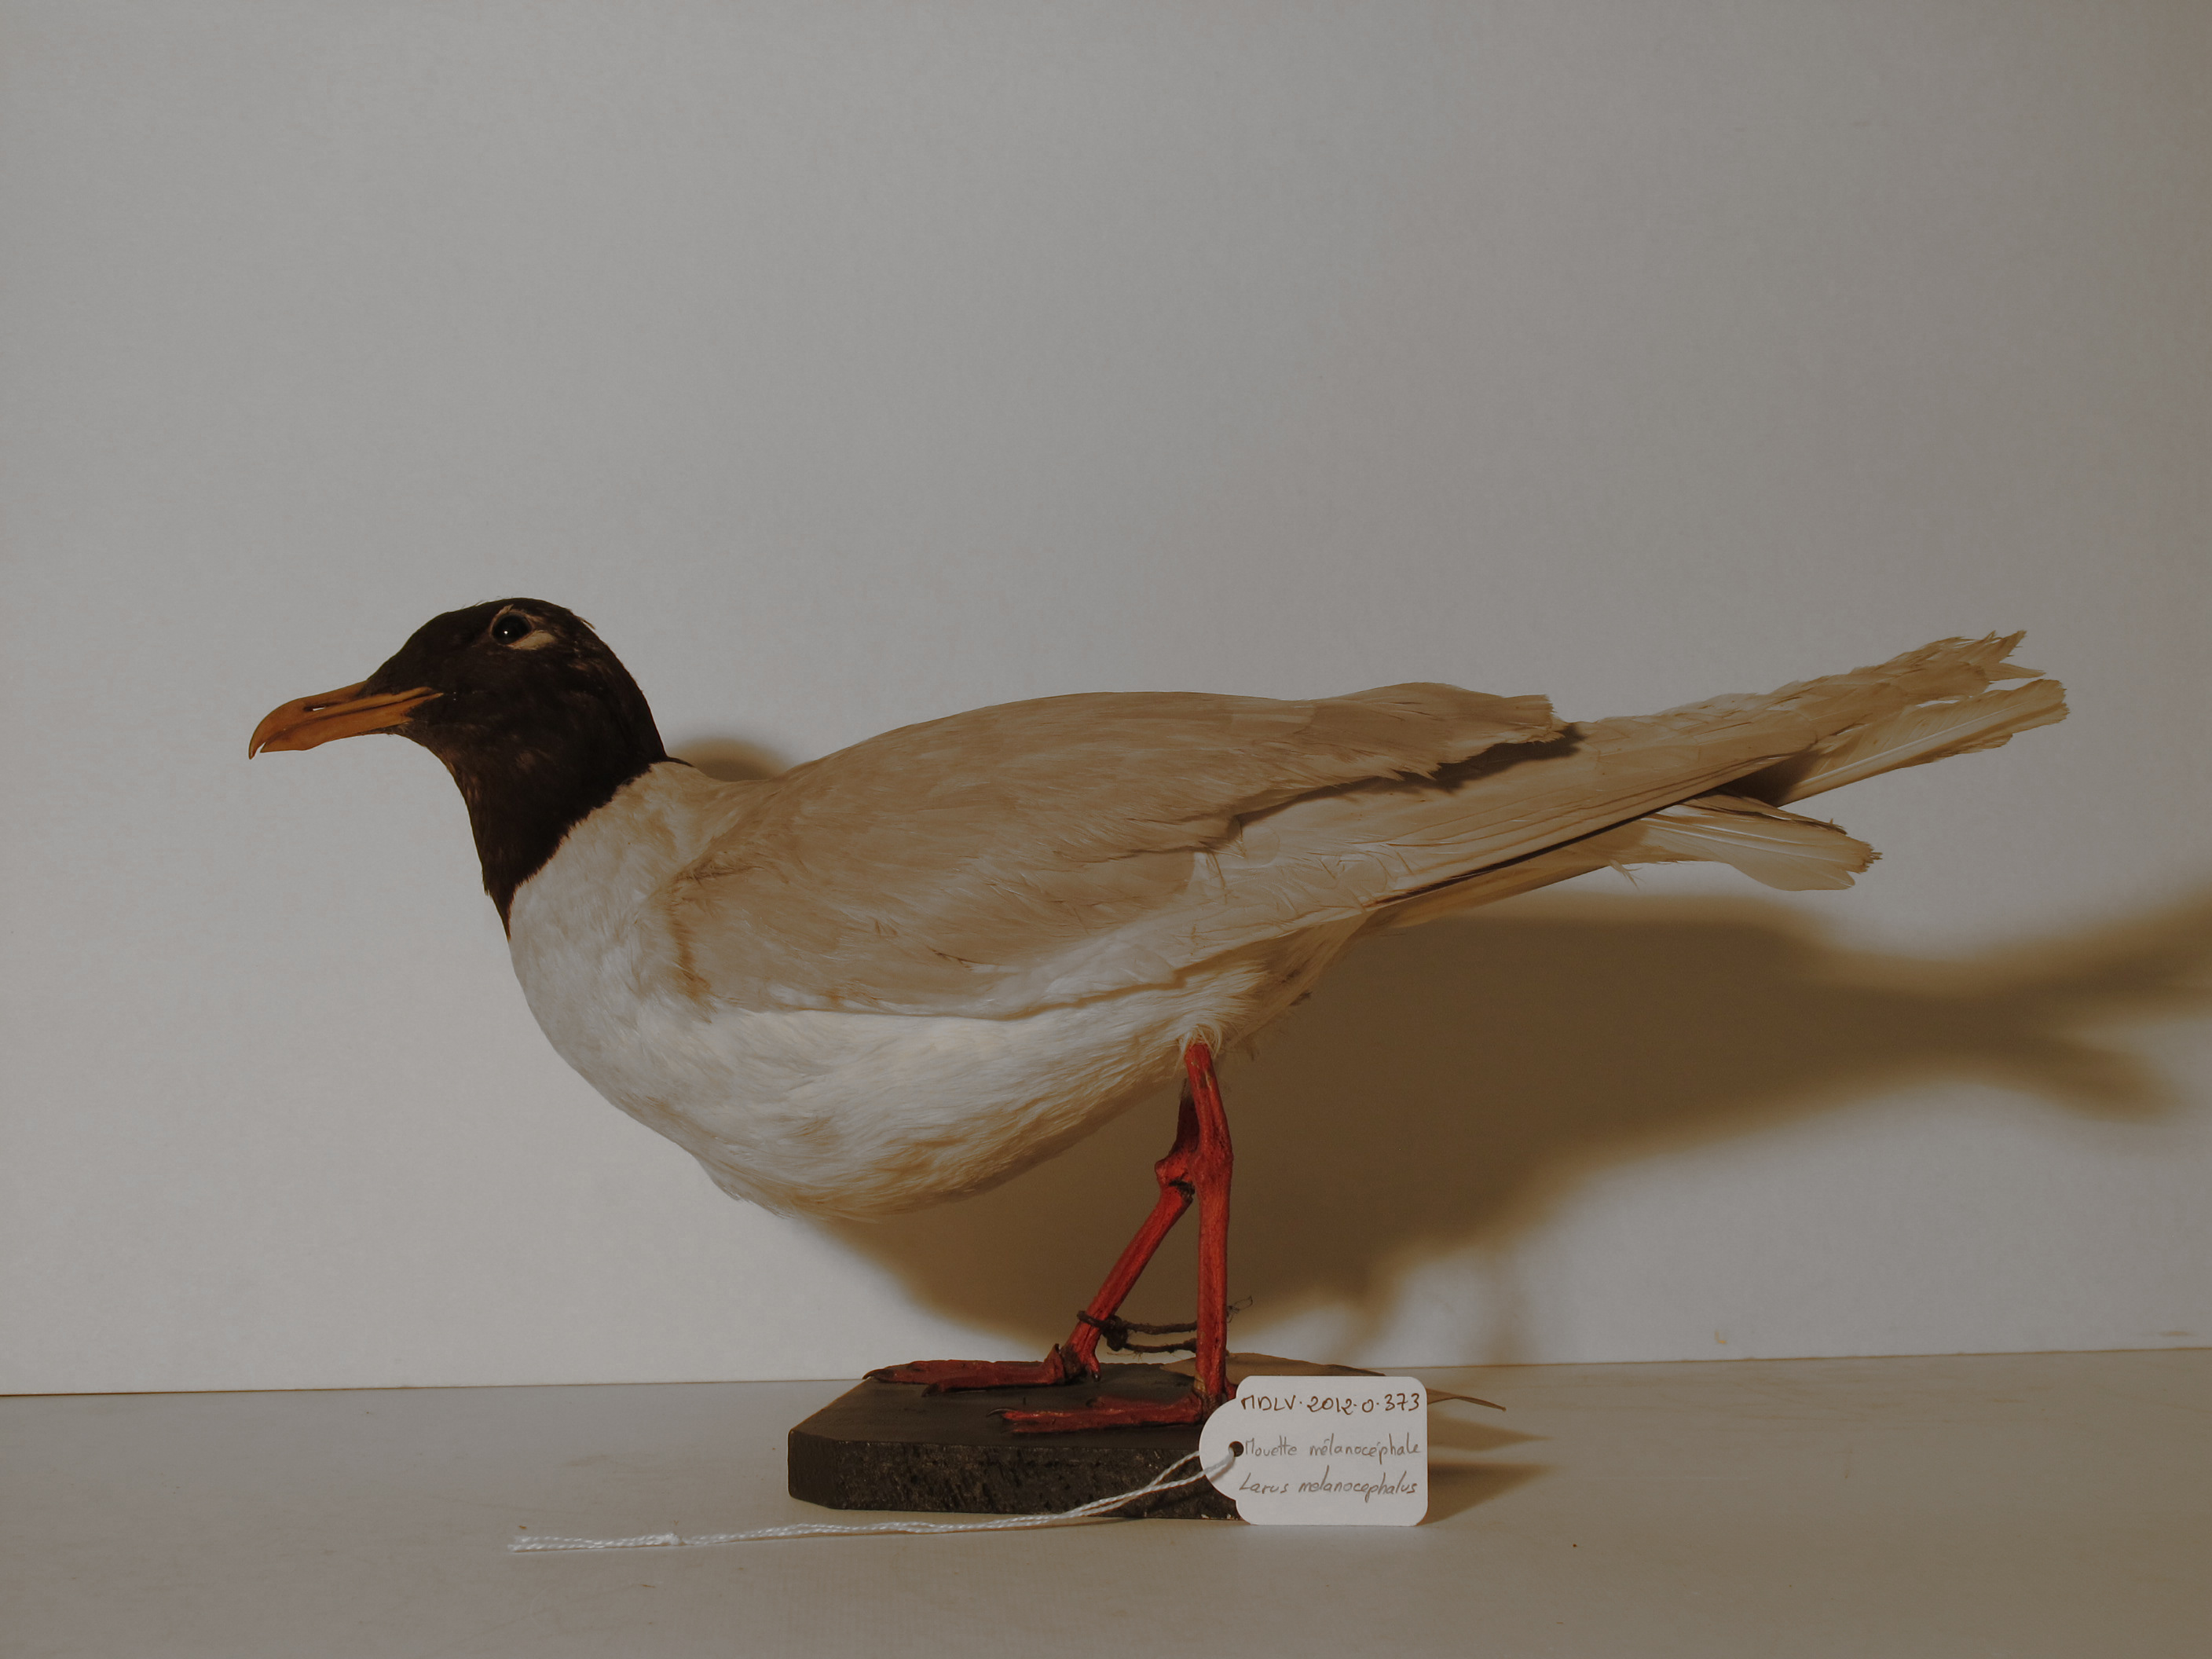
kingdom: Animalia
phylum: Chordata
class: Aves
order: Charadriiformes
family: Laridae
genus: Ichthyaetus
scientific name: Ichthyaetus melanocephalus
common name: Mediterranean Gull
